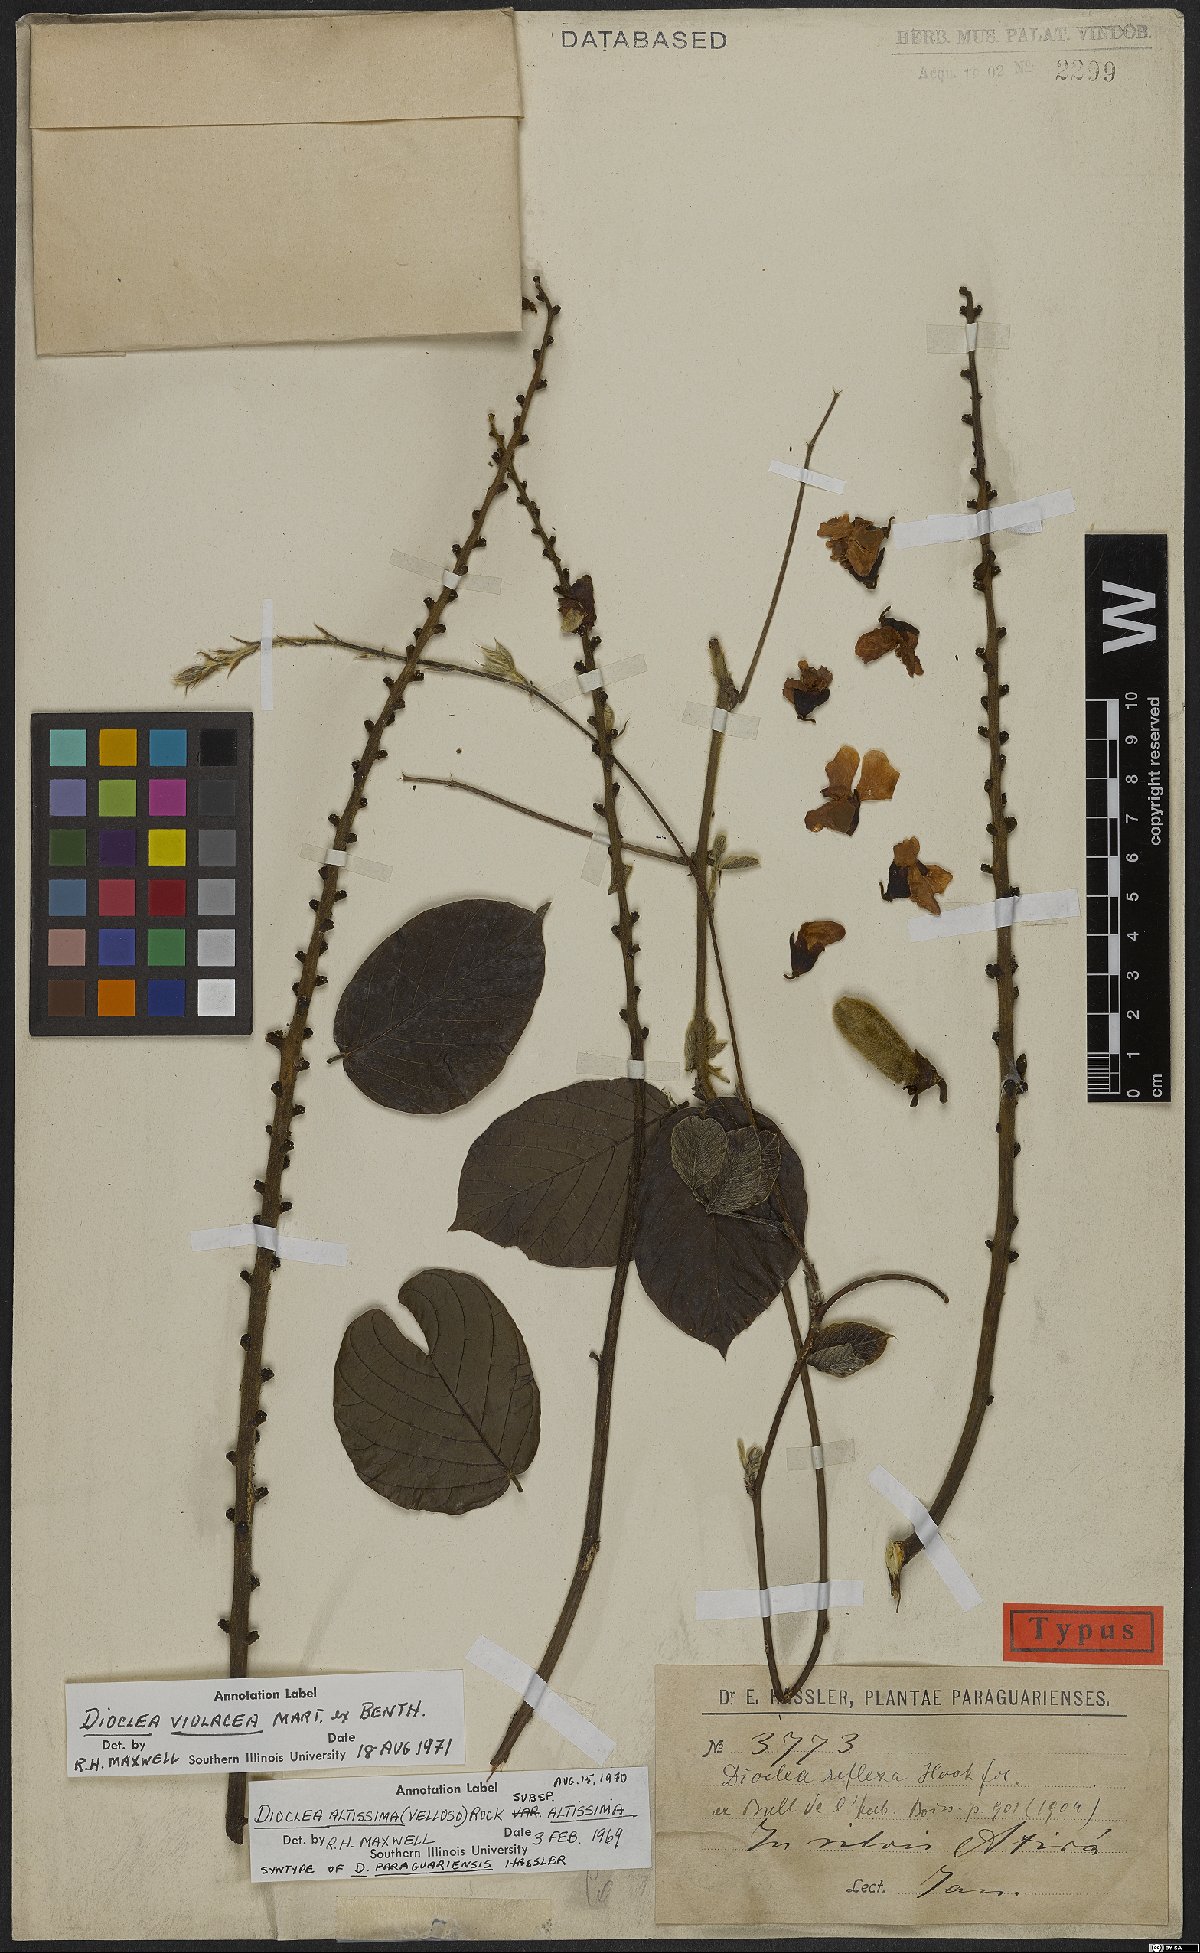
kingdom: Plantae
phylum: Tracheophyta
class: Magnoliopsida
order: Fabales
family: Fabaceae
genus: Macropsychanthus
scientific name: Macropsychanthus violaceus
